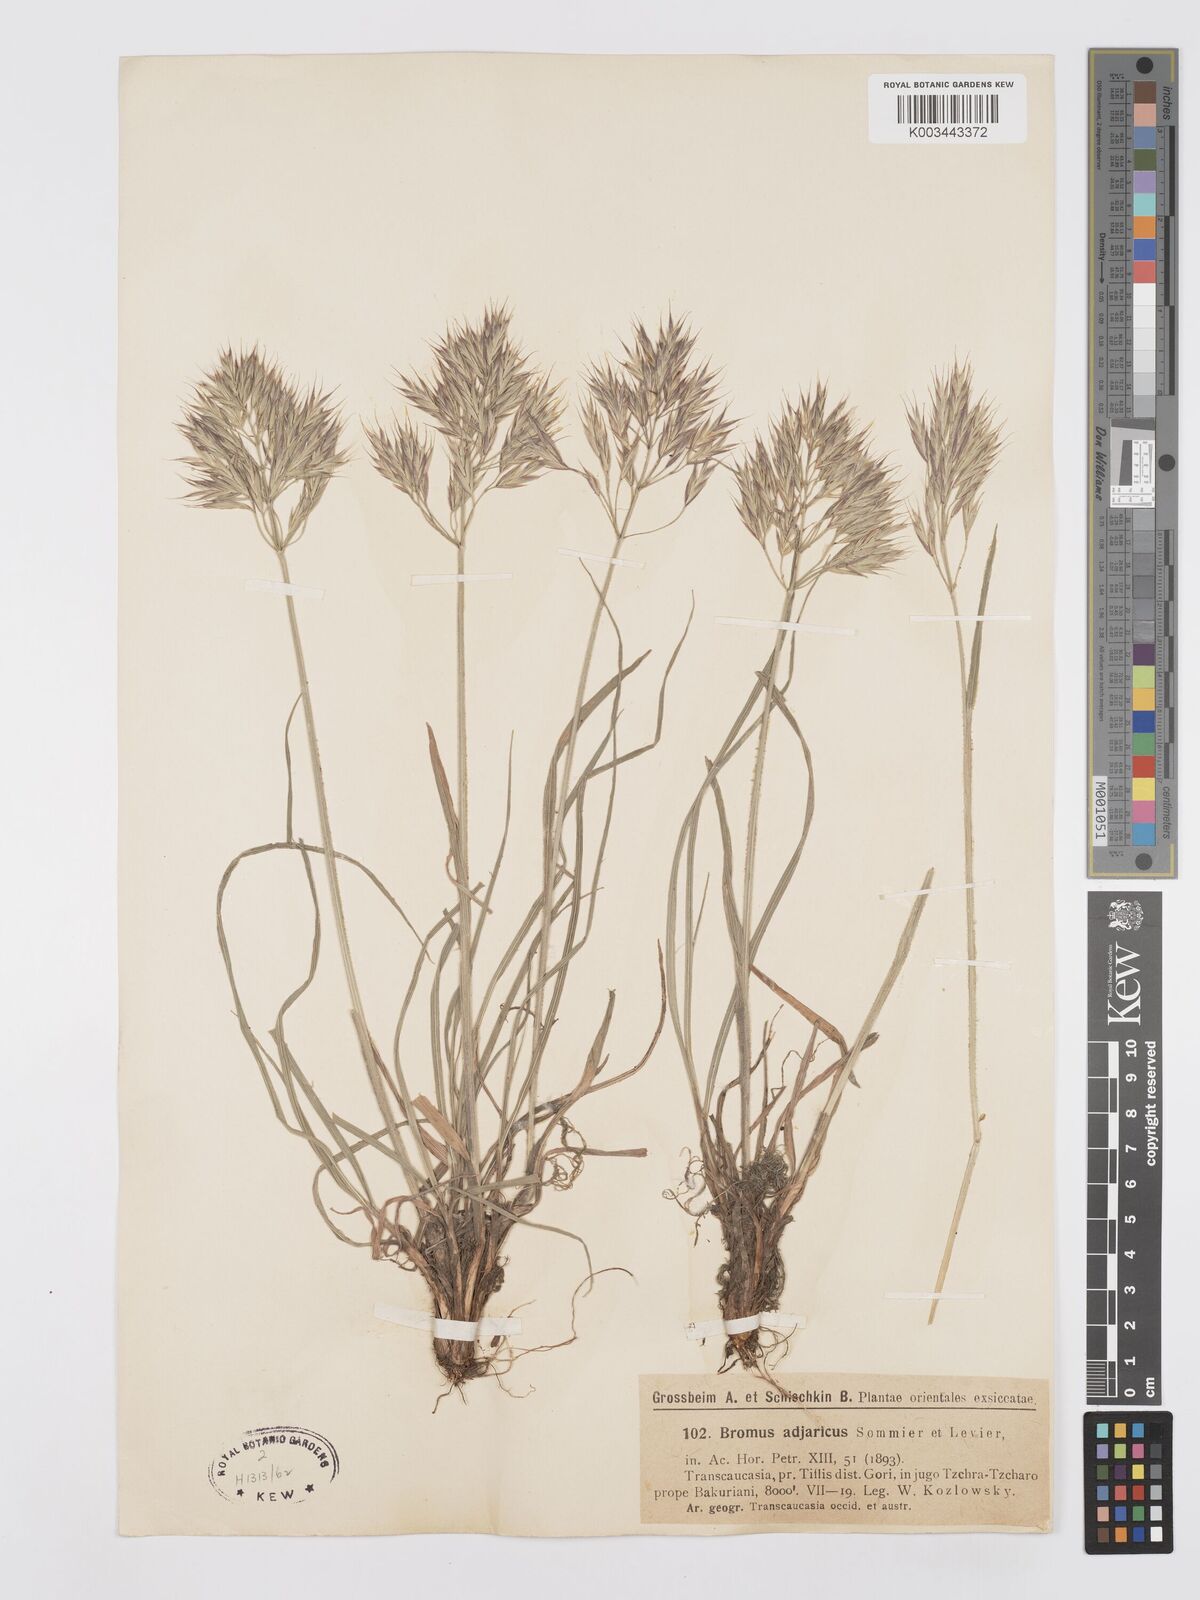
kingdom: Plantae
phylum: Tracheophyta
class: Liliopsida
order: Poales
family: Poaceae
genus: Bromus
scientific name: Bromus variegatus
